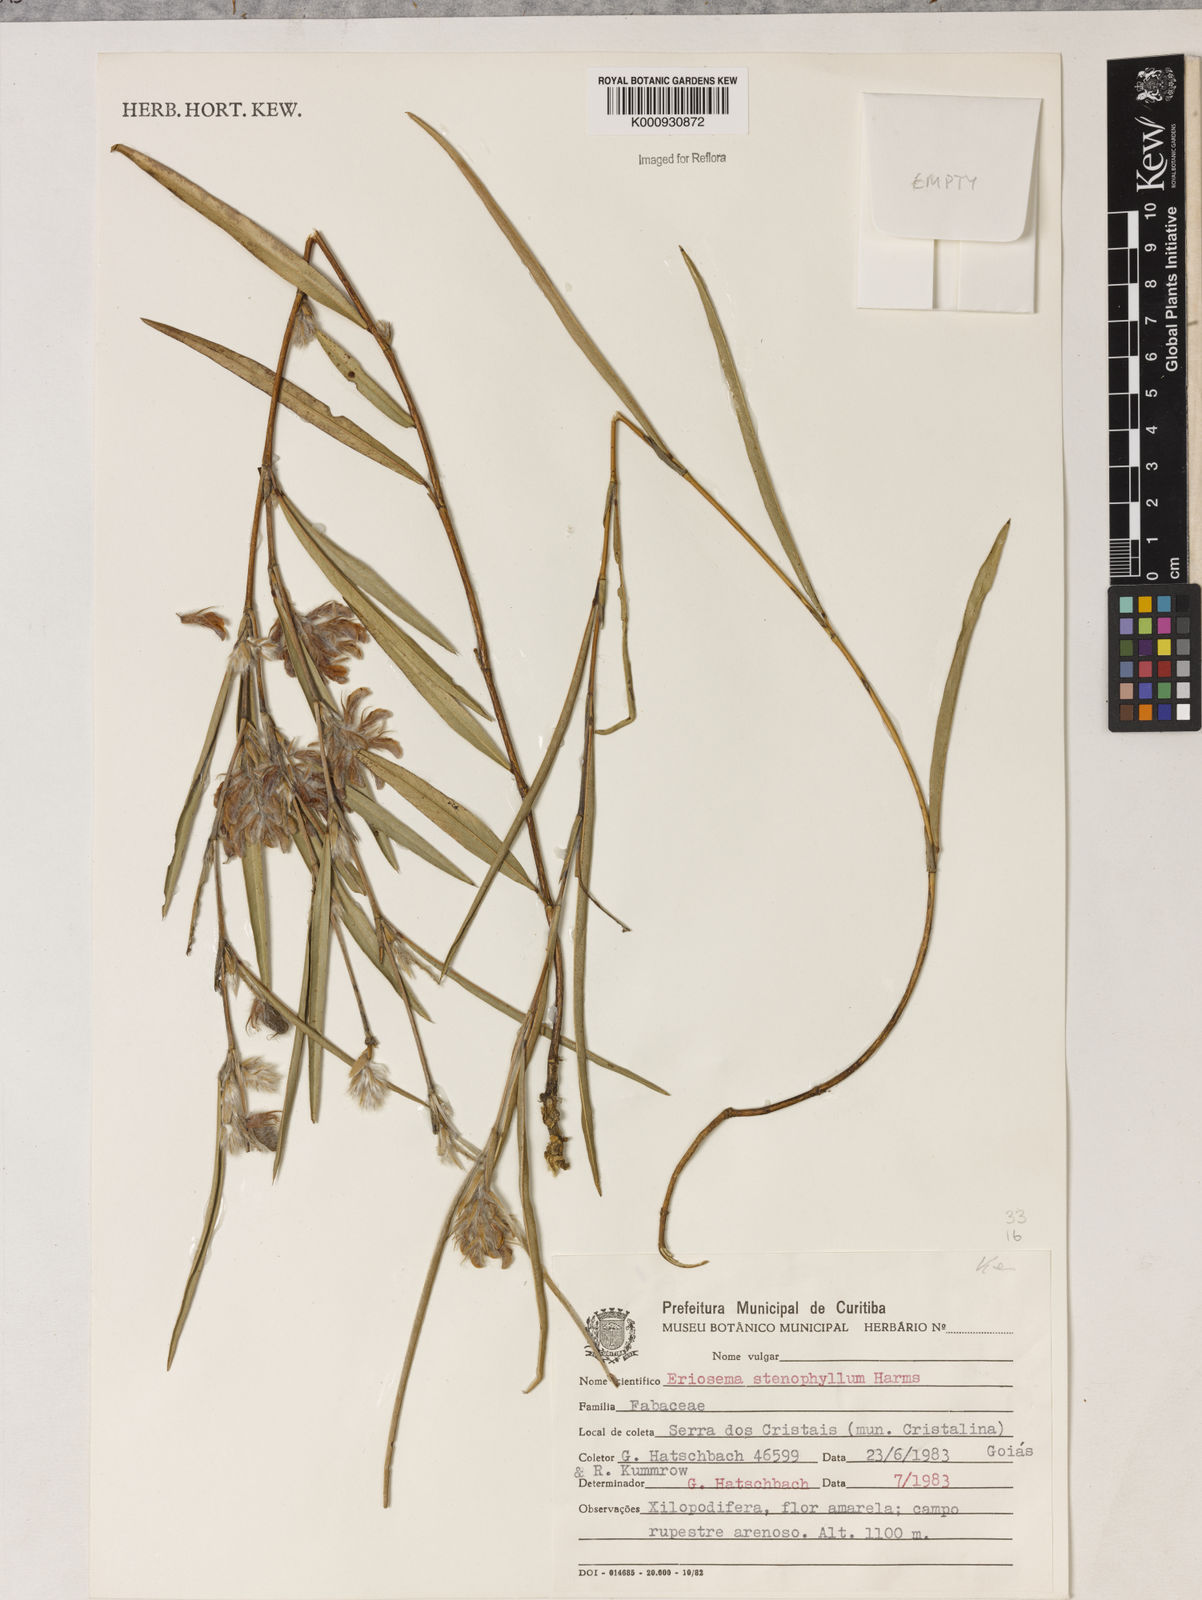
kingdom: Plantae
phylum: Tracheophyta
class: Magnoliopsida
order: Fabales
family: Fabaceae
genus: Eriosema
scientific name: Eriosema stenophyllum
